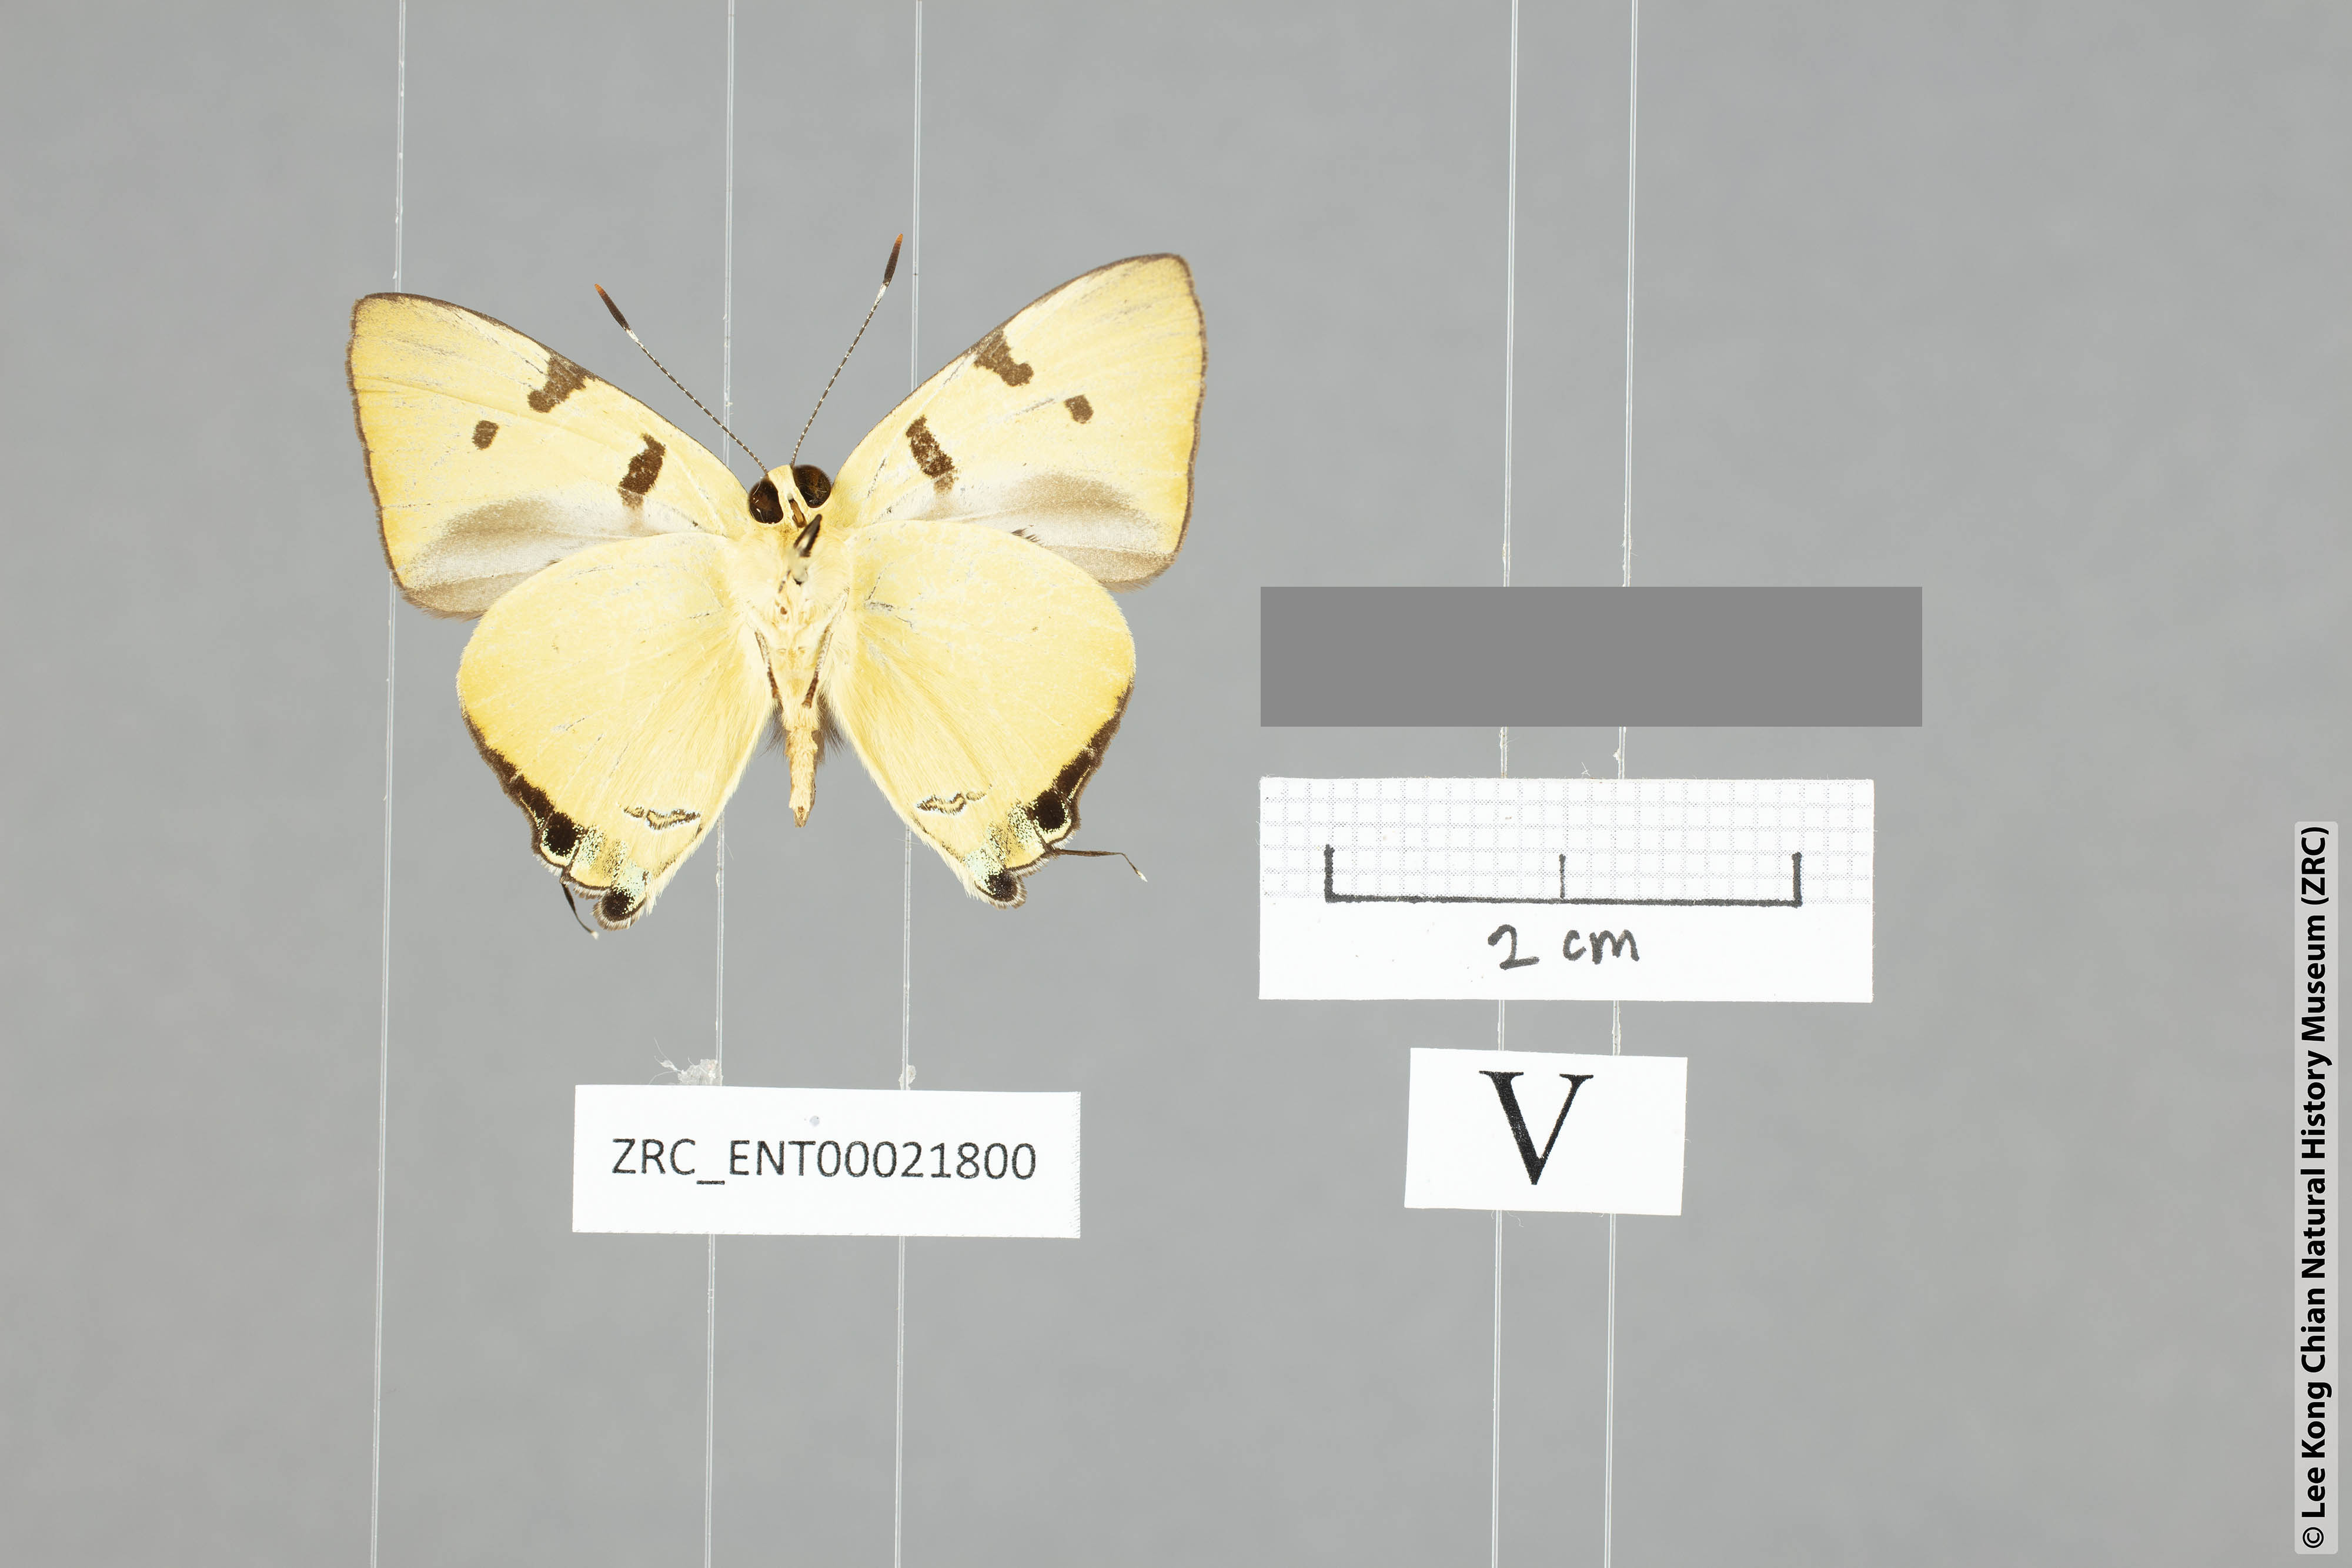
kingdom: Animalia
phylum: Arthropoda
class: Insecta
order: Lepidoptera
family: Lycaenidae
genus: Rapala
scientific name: Rapala domitia
